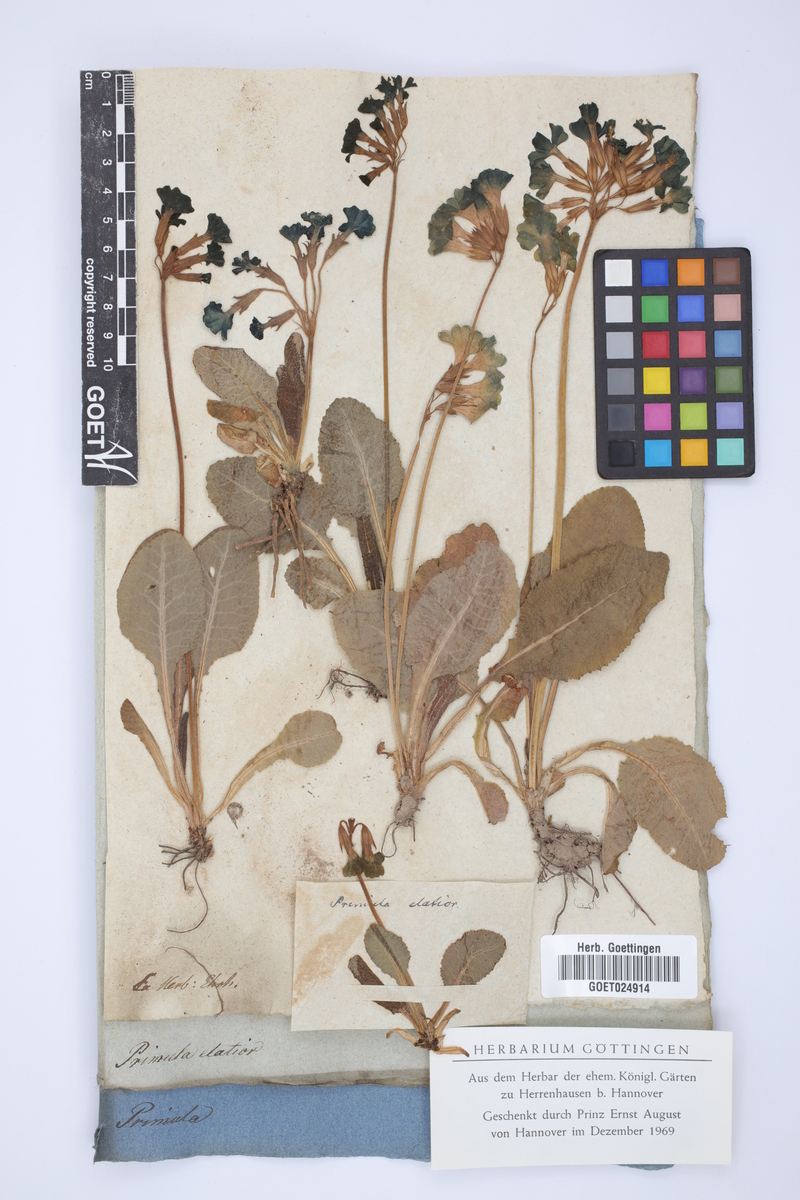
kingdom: Plantae
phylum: Tracheophyta
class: Magnoliopsida
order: Ericales
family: Primulaceae
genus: Primula
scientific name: Primula elatior
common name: Oxlip
